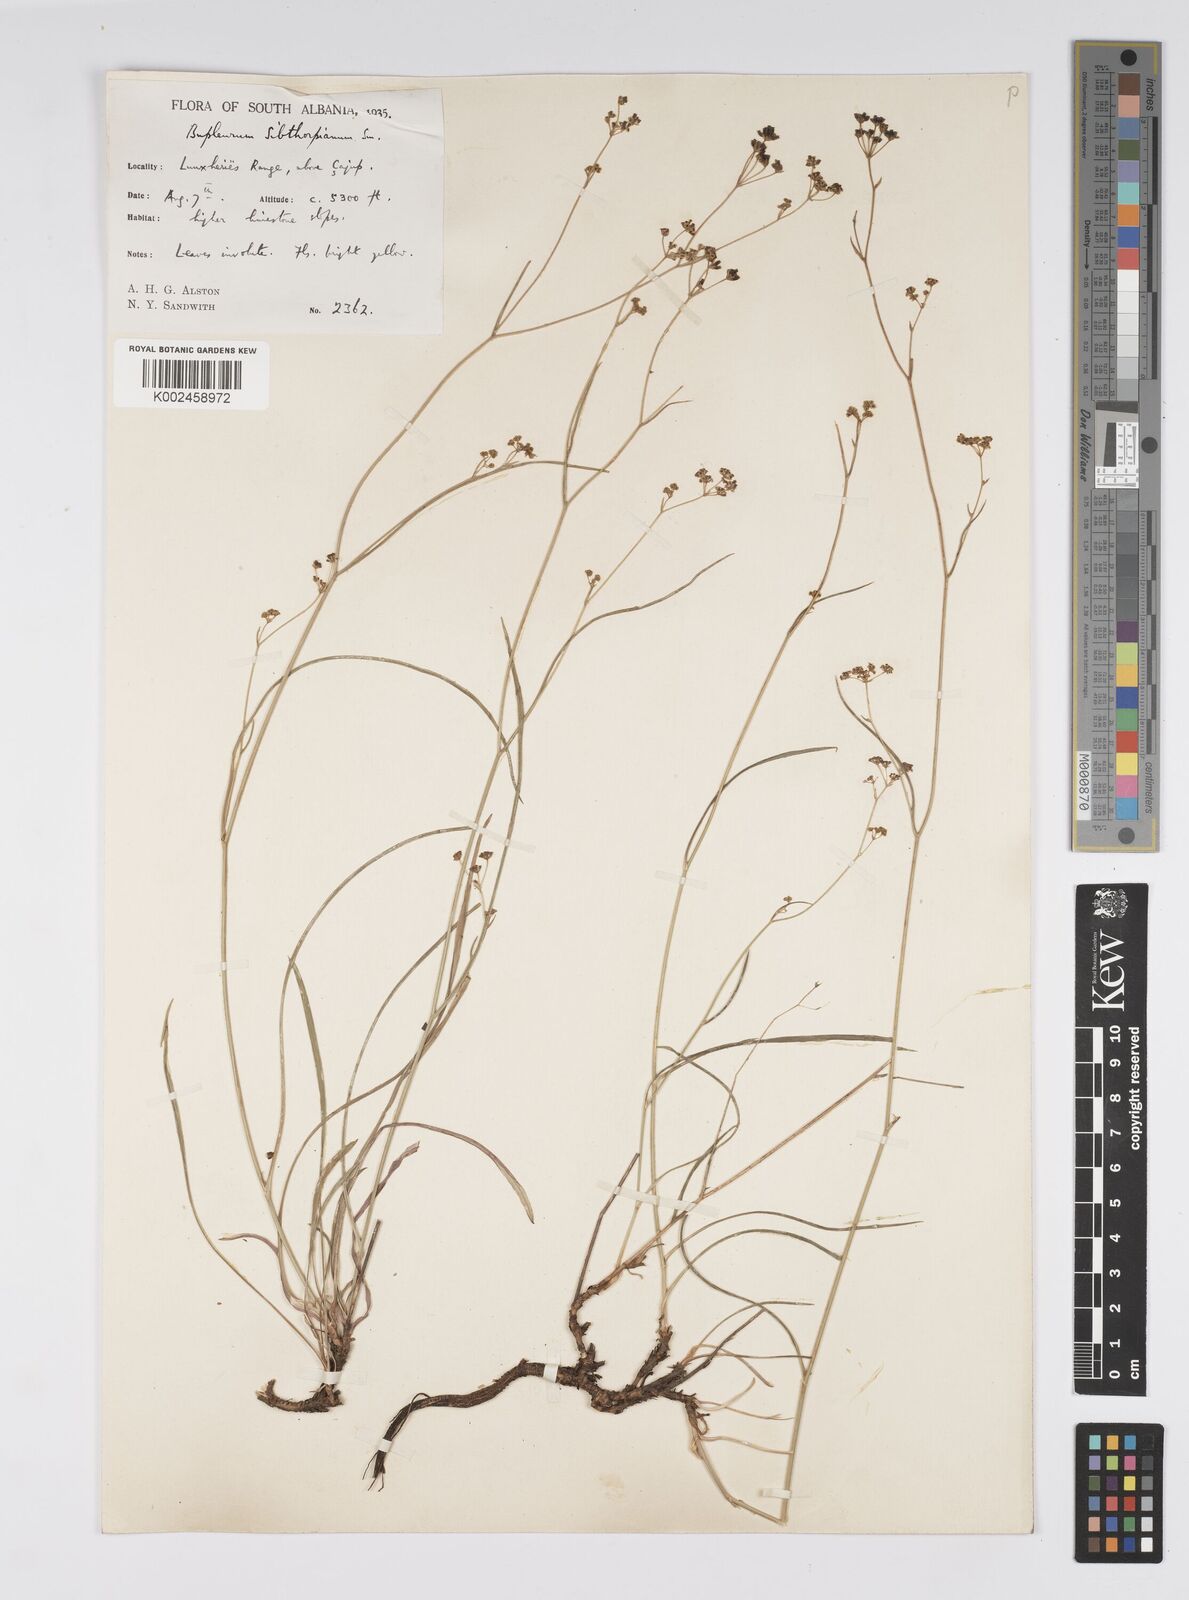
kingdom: Plantae
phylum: Tracheophyta
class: Magnoliopsida
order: Apiales
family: Apiaceae
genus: Bupleurum
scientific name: Bupleurum falcatum
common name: Sickle-leaved hare's-ear
